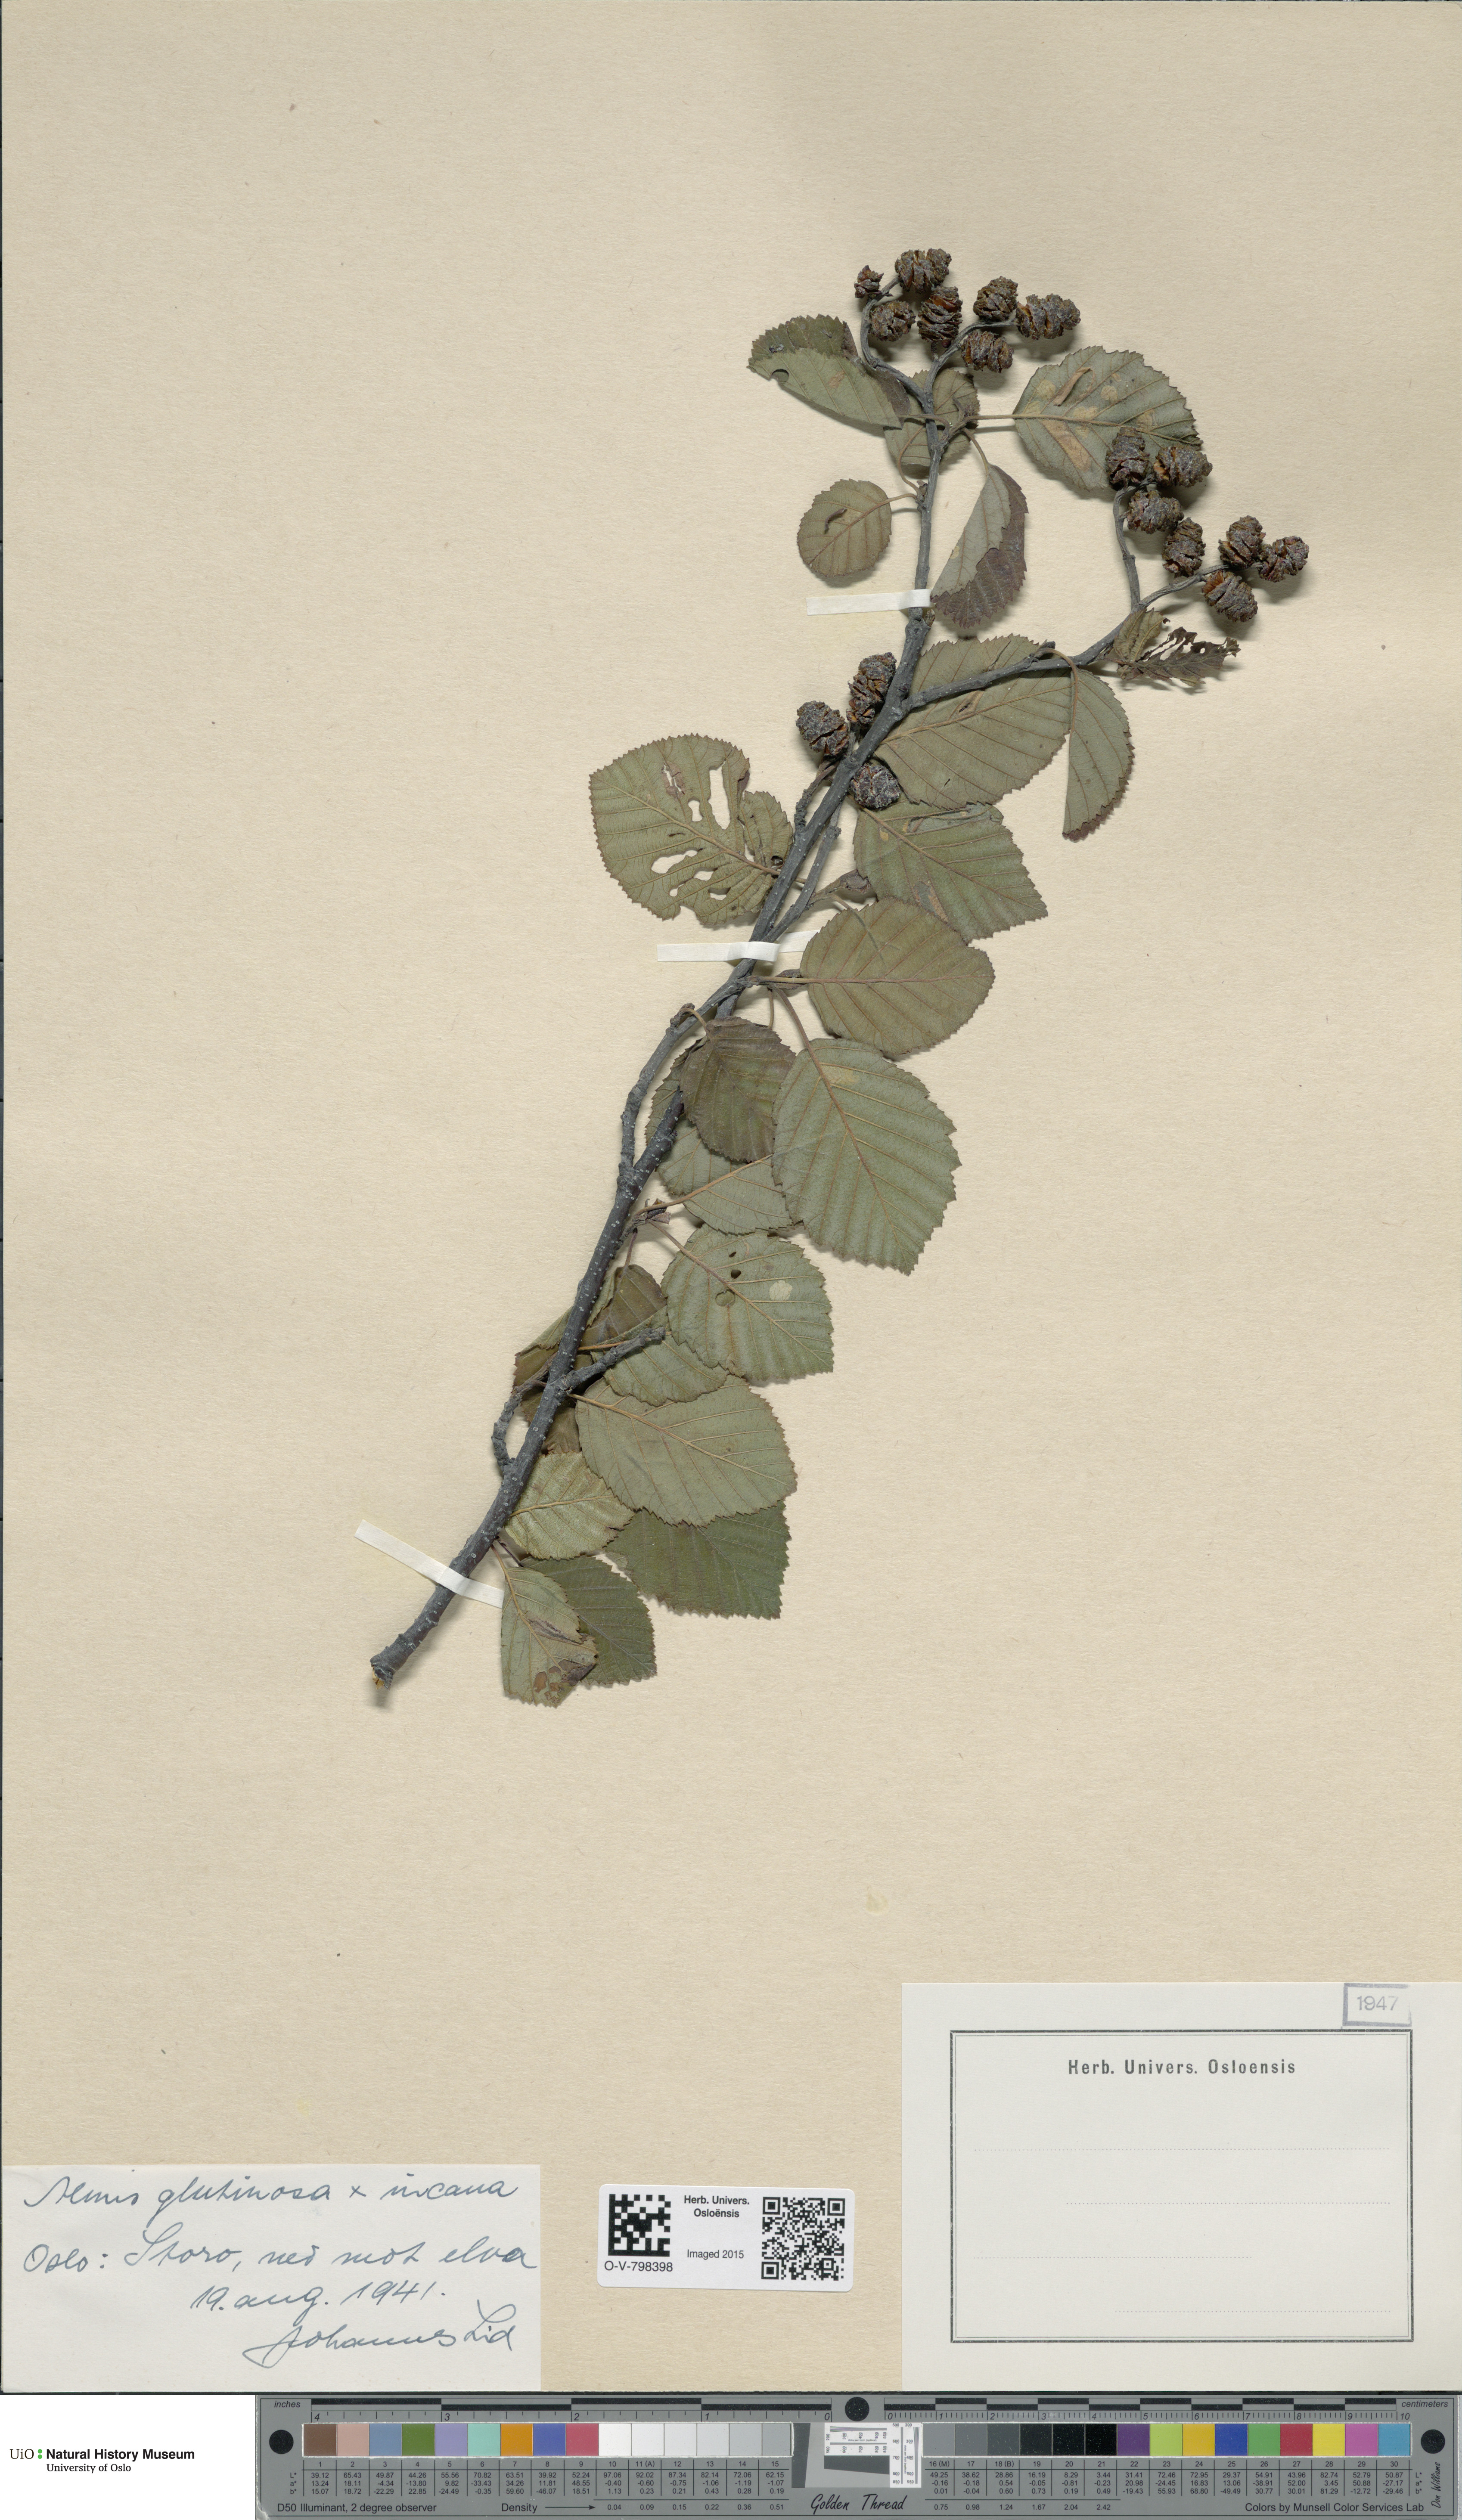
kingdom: Plantae
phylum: Tracheophyta
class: Magnoliopsida
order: Fagales
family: Betulaceae
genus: Alnus
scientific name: Alnus glutinosa
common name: Black alder
